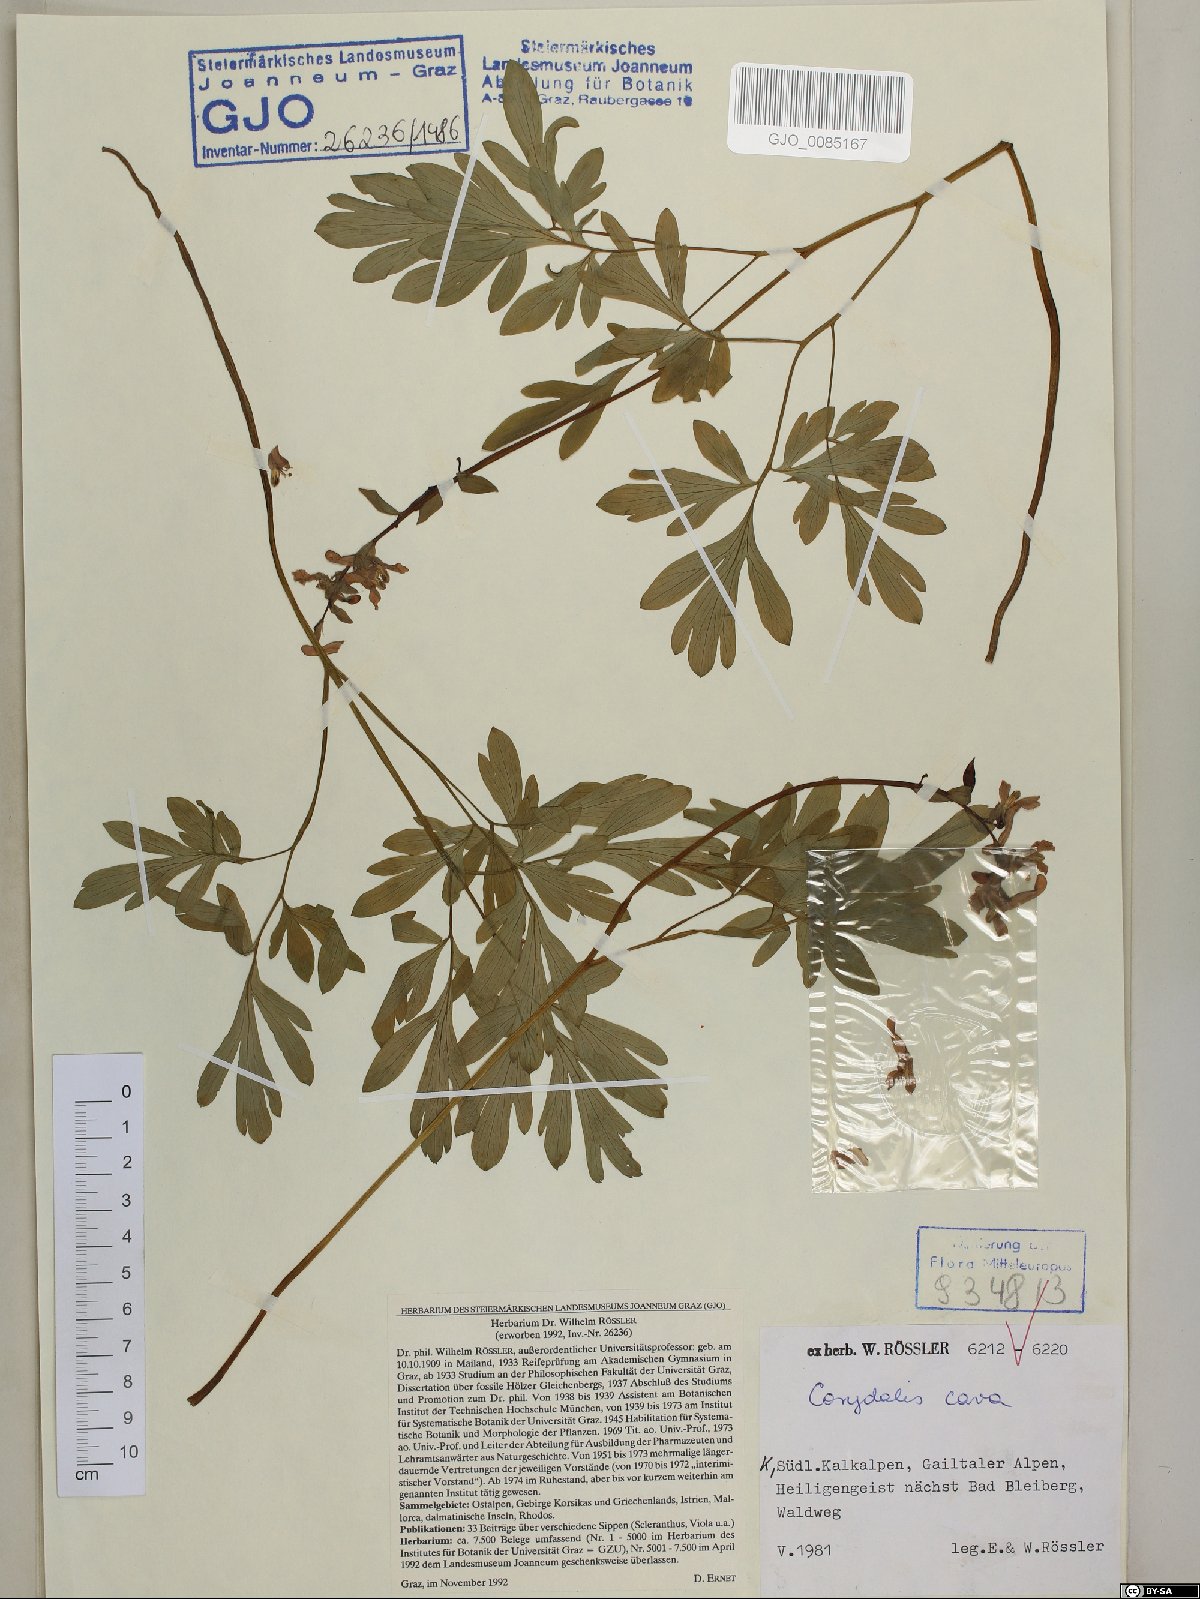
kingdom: Plantae
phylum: Tracheophyta
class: Magnoliopsida
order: Ranunculales
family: Papaveraceae
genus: Corydalis
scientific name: Corydalis cava
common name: Hollowroot
